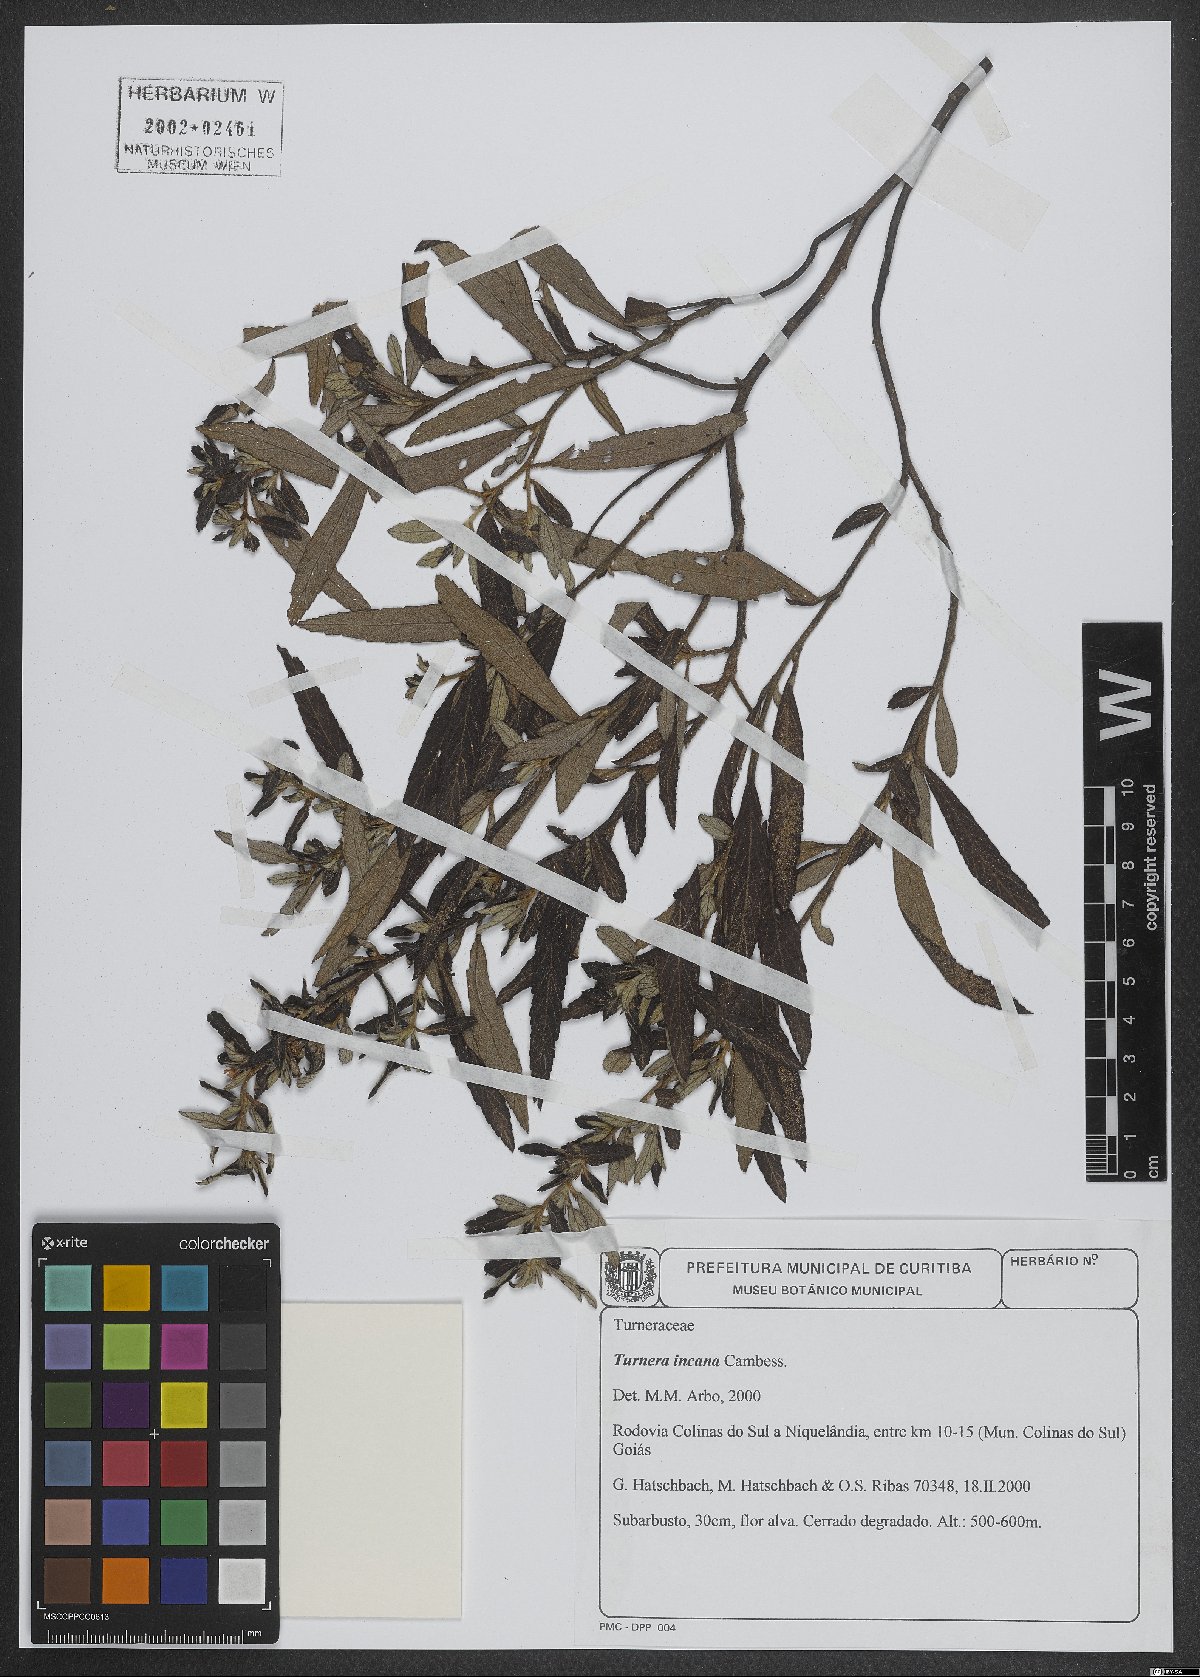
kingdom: Plantae
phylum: Tracheophyta
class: Magnoliopsida
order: Malpighiales
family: Turneraceae
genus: Turnera
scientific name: Turnera incana
